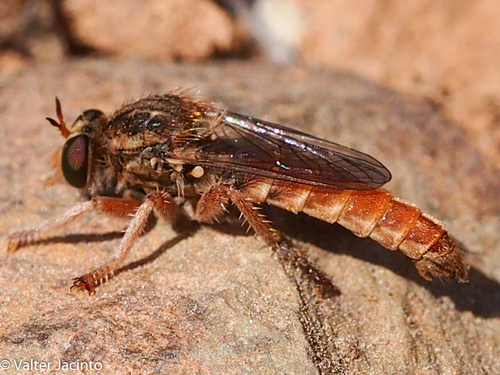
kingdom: Animalia
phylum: Arthropoda
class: Insecta
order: Diptera
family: Asilidae
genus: Habropogon
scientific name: Habropogon
